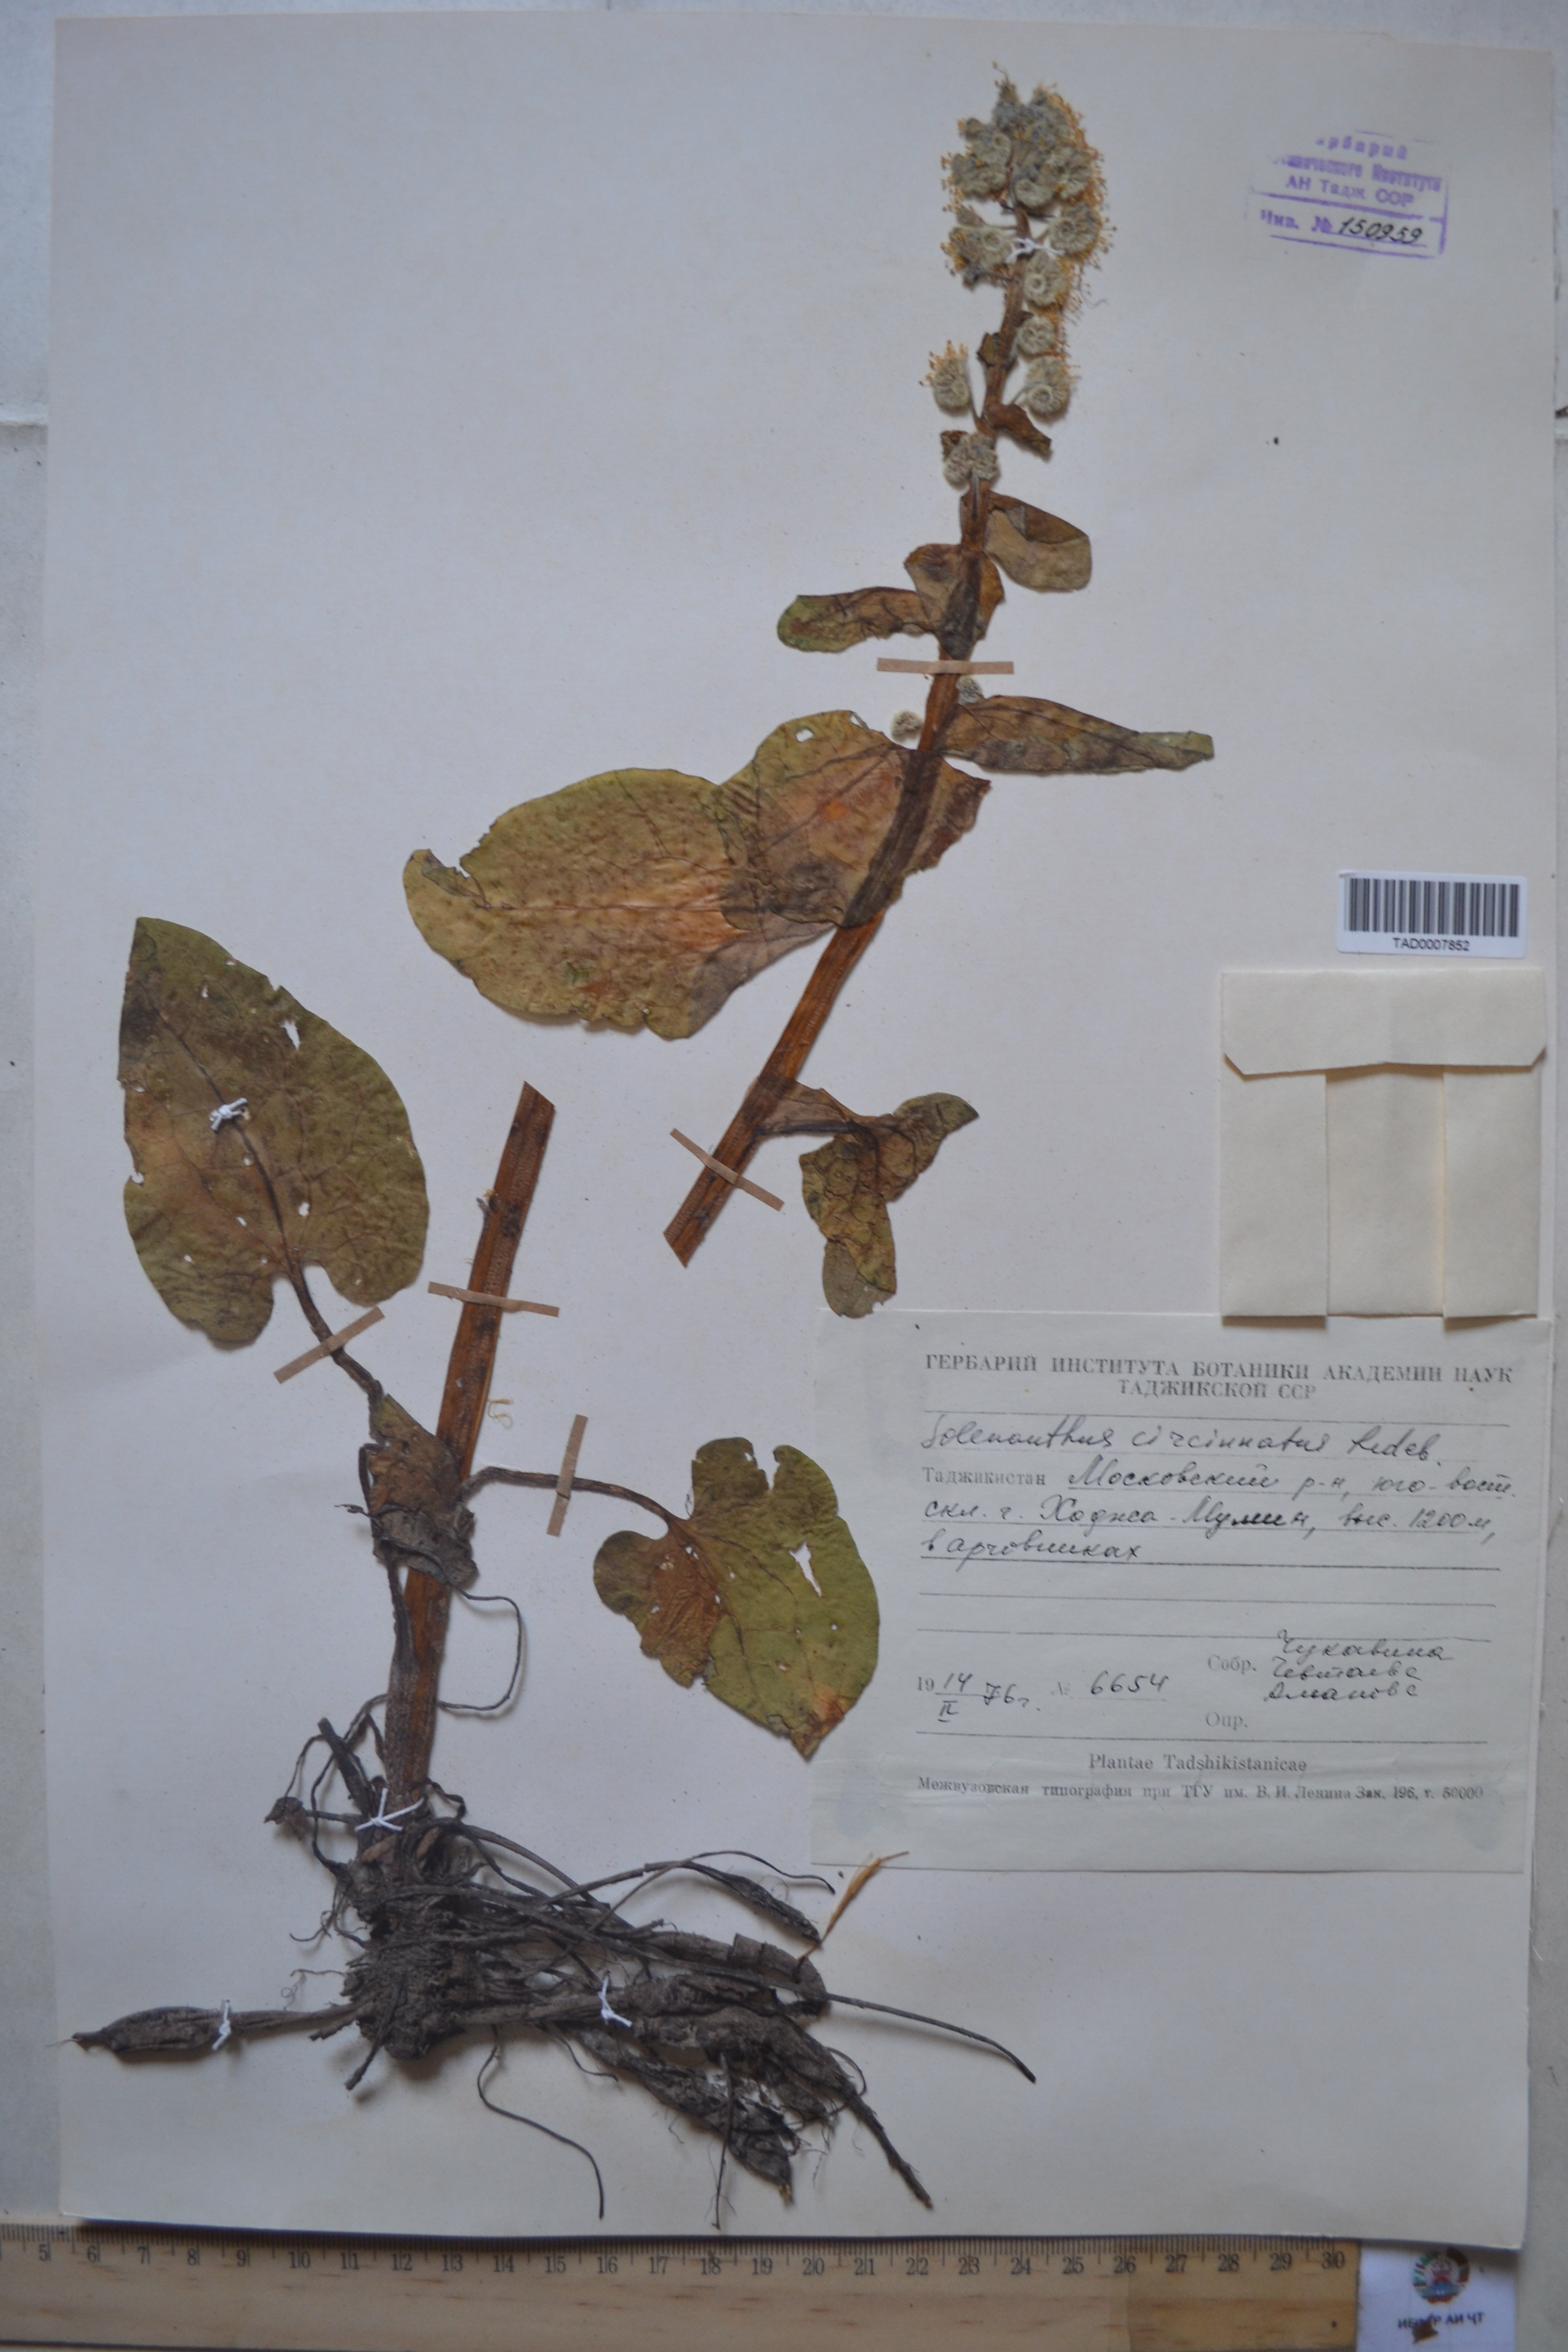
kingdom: Plantae
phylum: Tracheophyta
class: Magnoliopsida
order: Boraginales
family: Boraginaceae
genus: Solenanthus
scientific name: Solenanthus circinnatus
